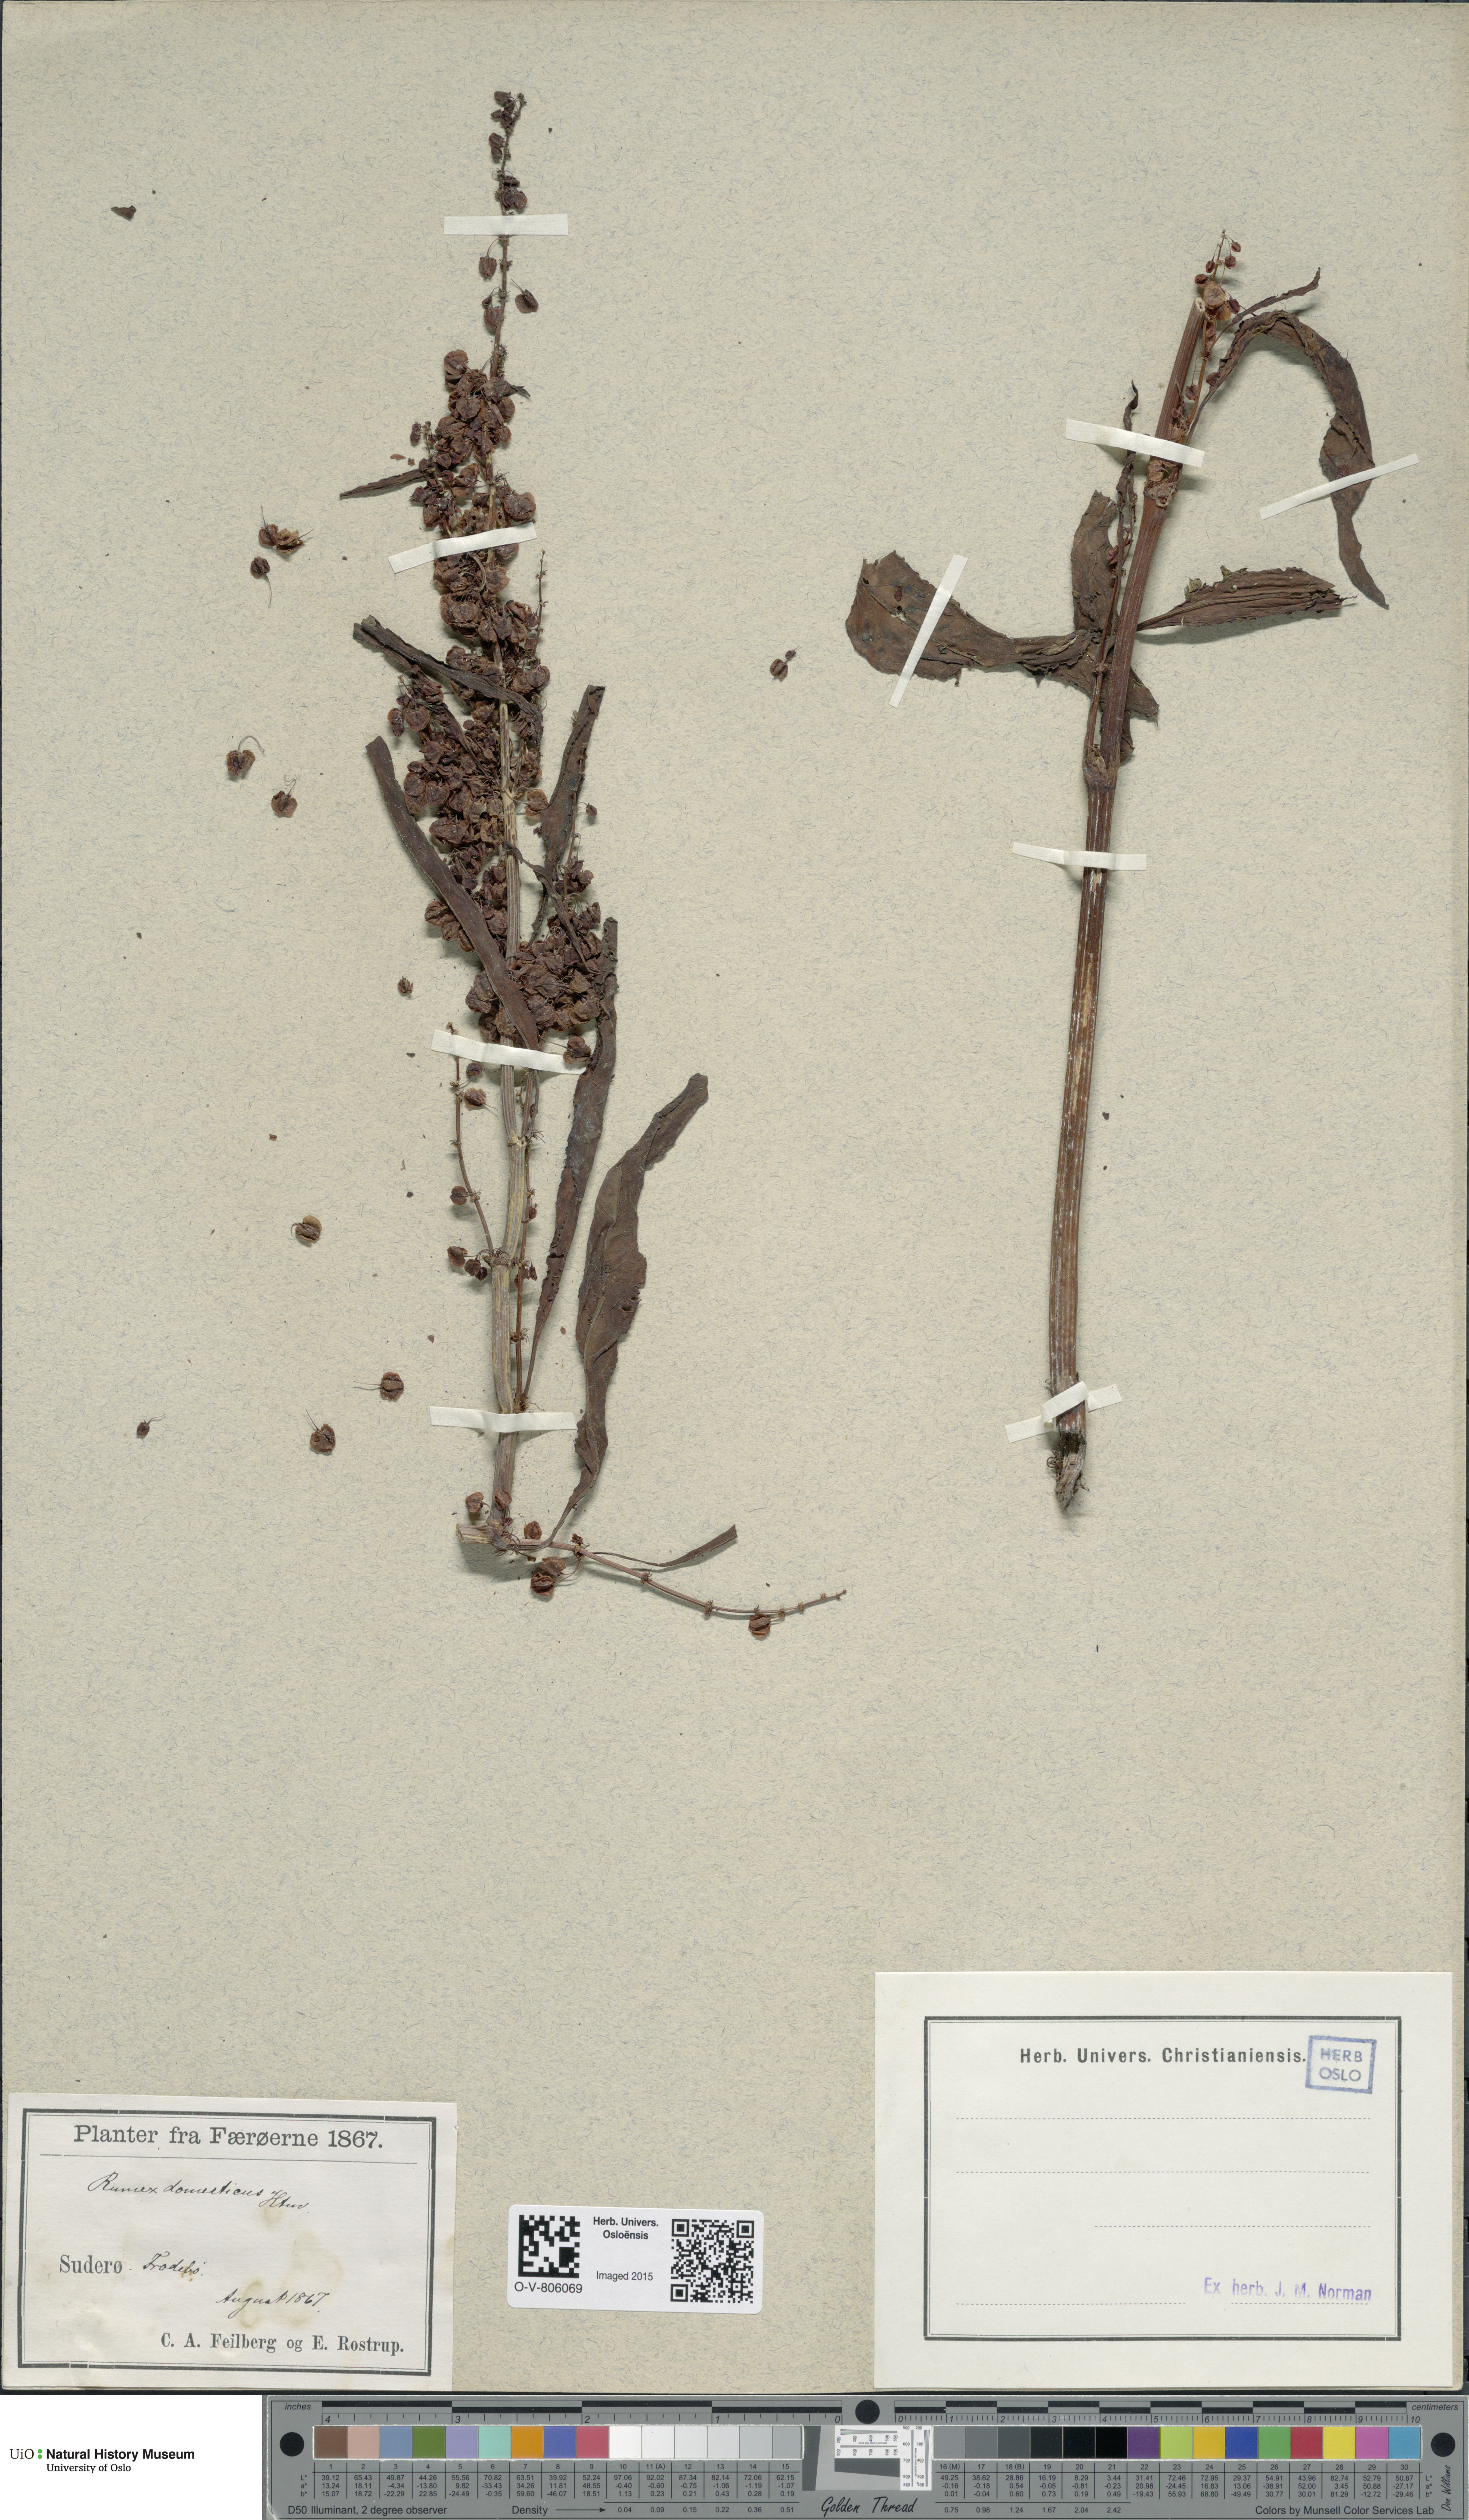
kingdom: Plantae
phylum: Tracheophyta
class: Magnoliopsida
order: Caryophyllales
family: Polygonaceae
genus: Rumex
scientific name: Rumex longifolius
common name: Dooryard dock
